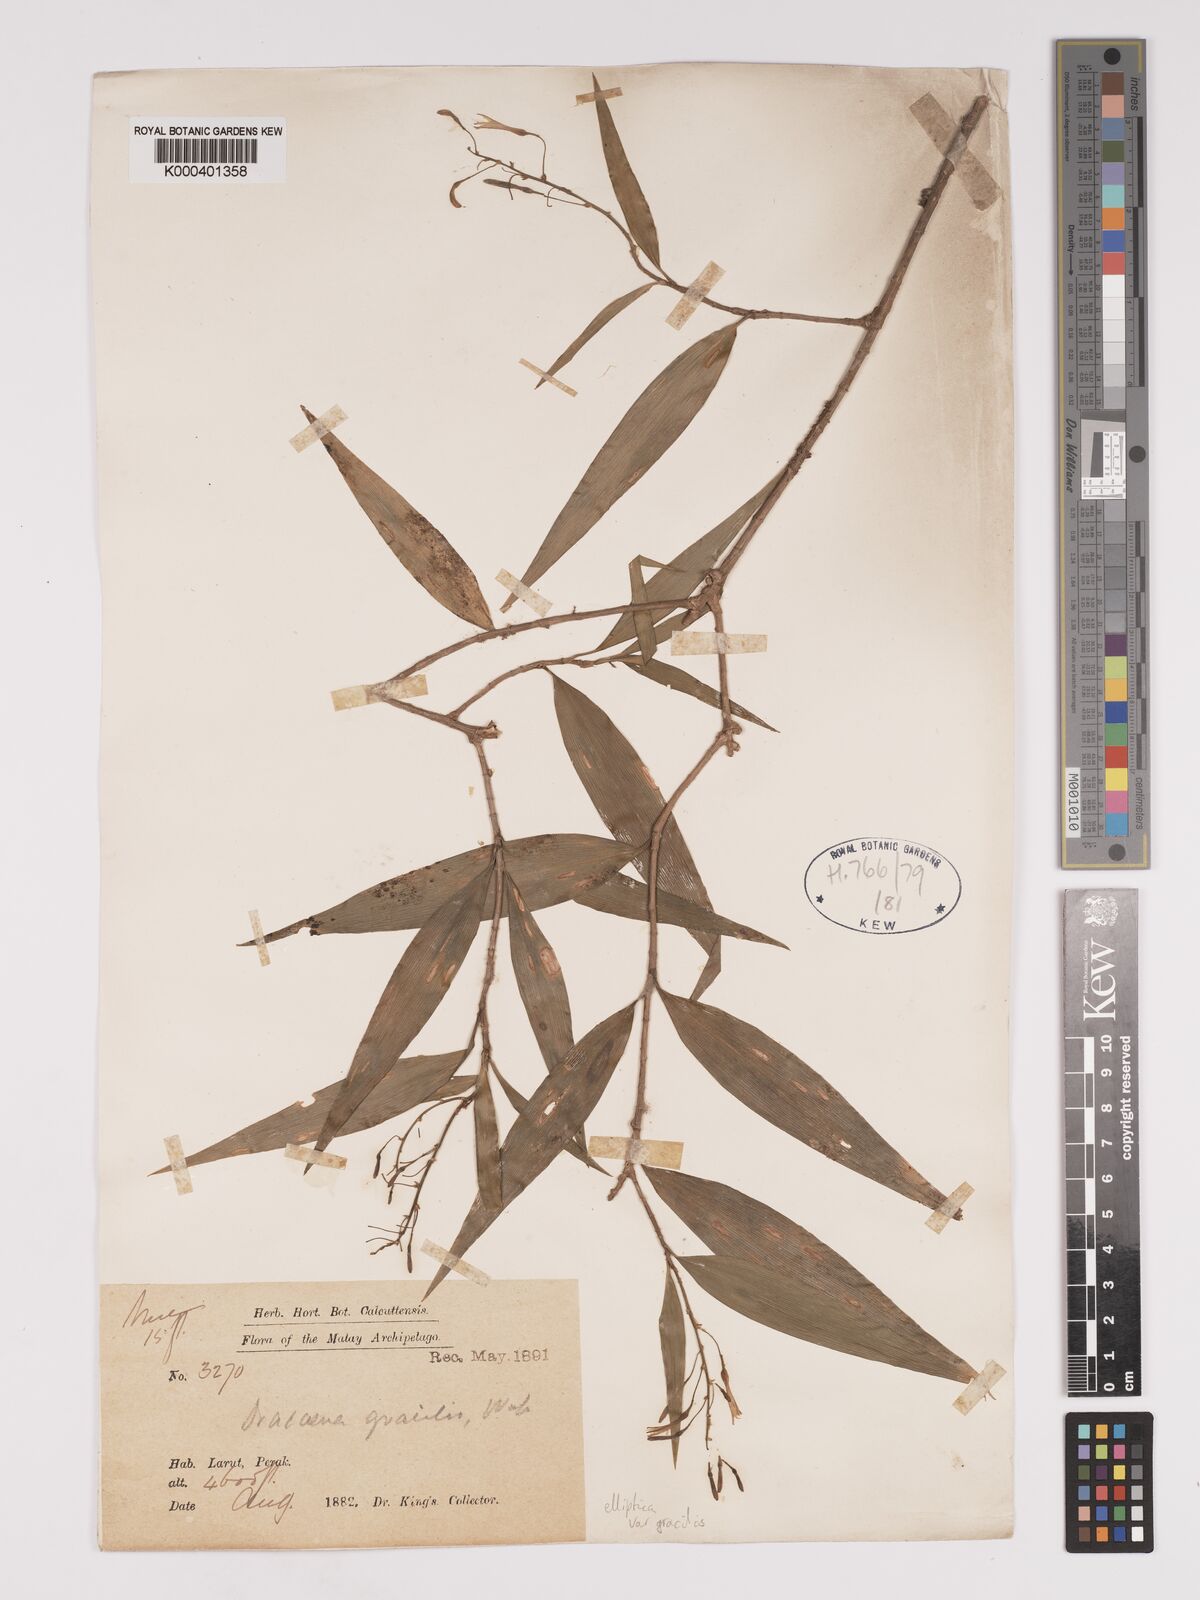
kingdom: Plantae
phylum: Tracheophyta
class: Liliopsida
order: Asparagales
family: Asparagaceae
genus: Dracaena
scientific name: Dracaena elliptica
